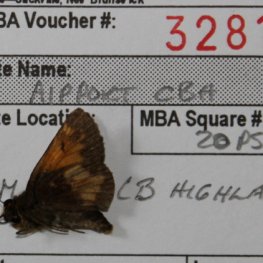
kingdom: Animalia
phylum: Arthropoda
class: Insecta
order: Lepidoptera
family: Hesperiidae
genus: Lon
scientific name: Lon hobomok
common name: Hobomok Skipper
